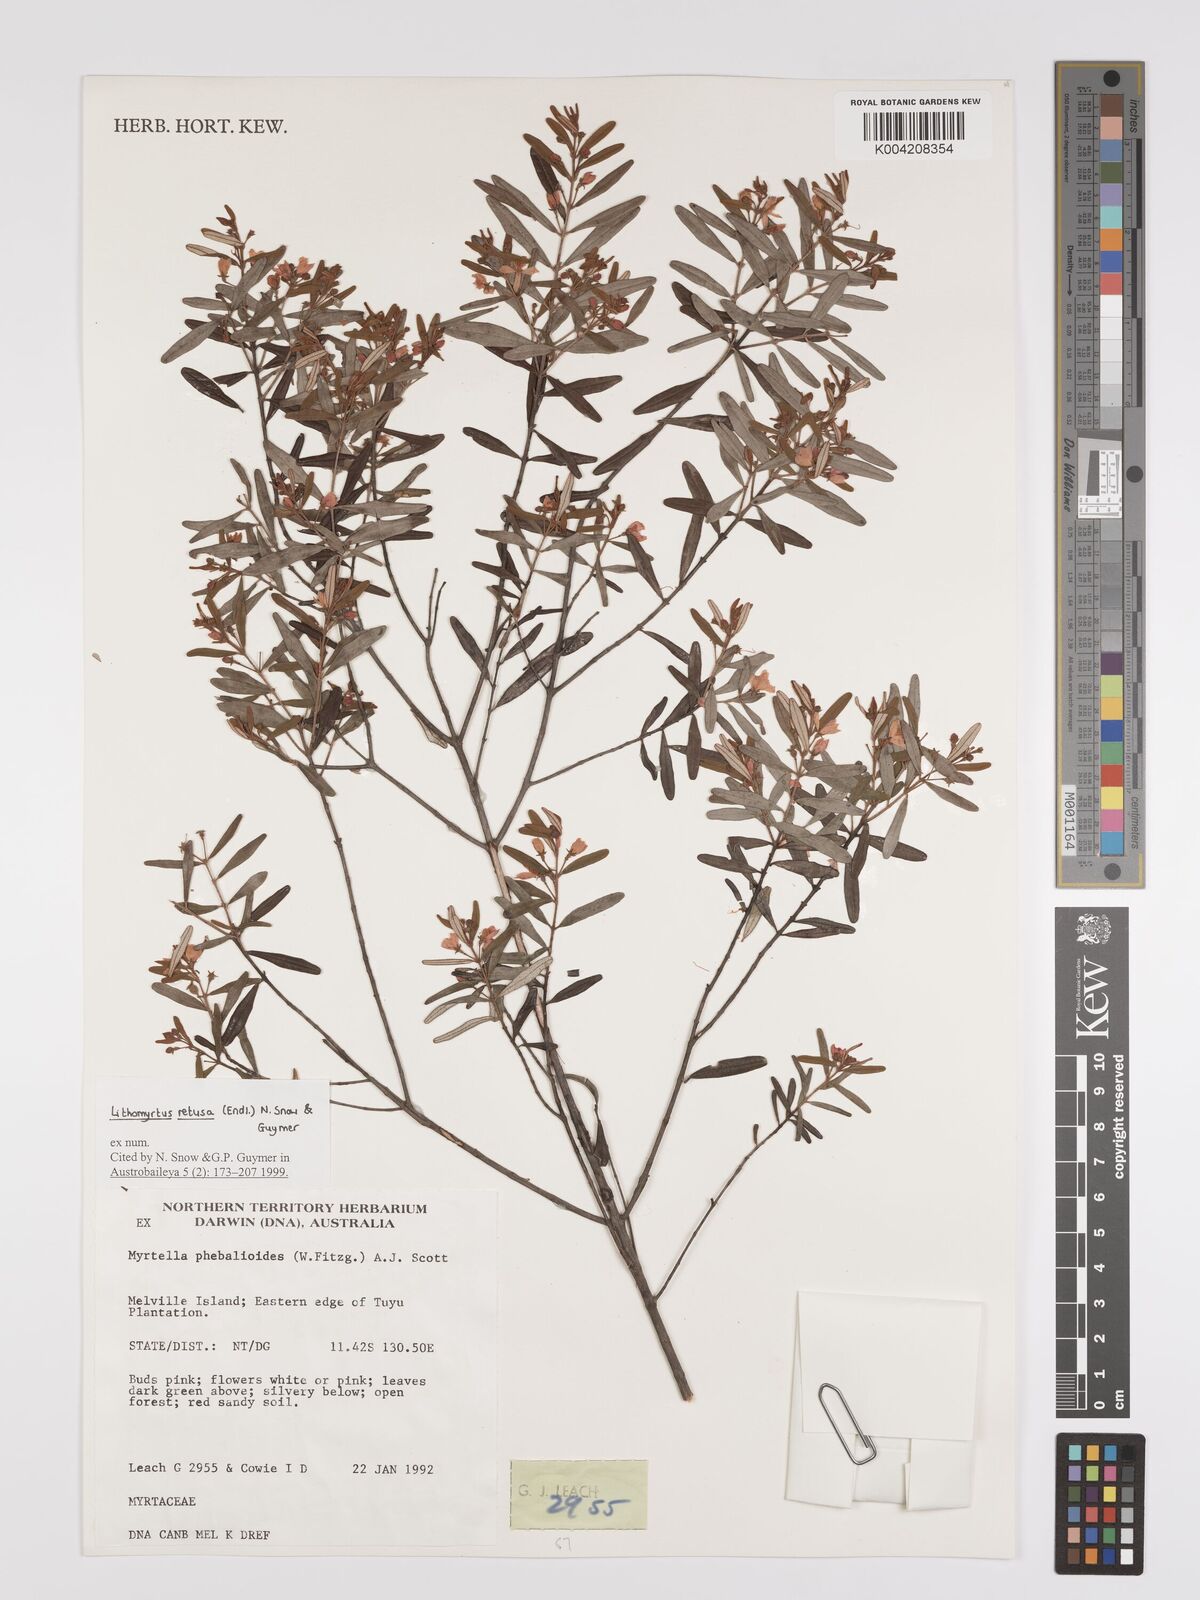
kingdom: Plantae
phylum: Tracheophyta
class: Magnoliopsida
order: Myrtales
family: Myrtaceae
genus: Lithomyrtus
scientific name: Lithomyrtus retusa
